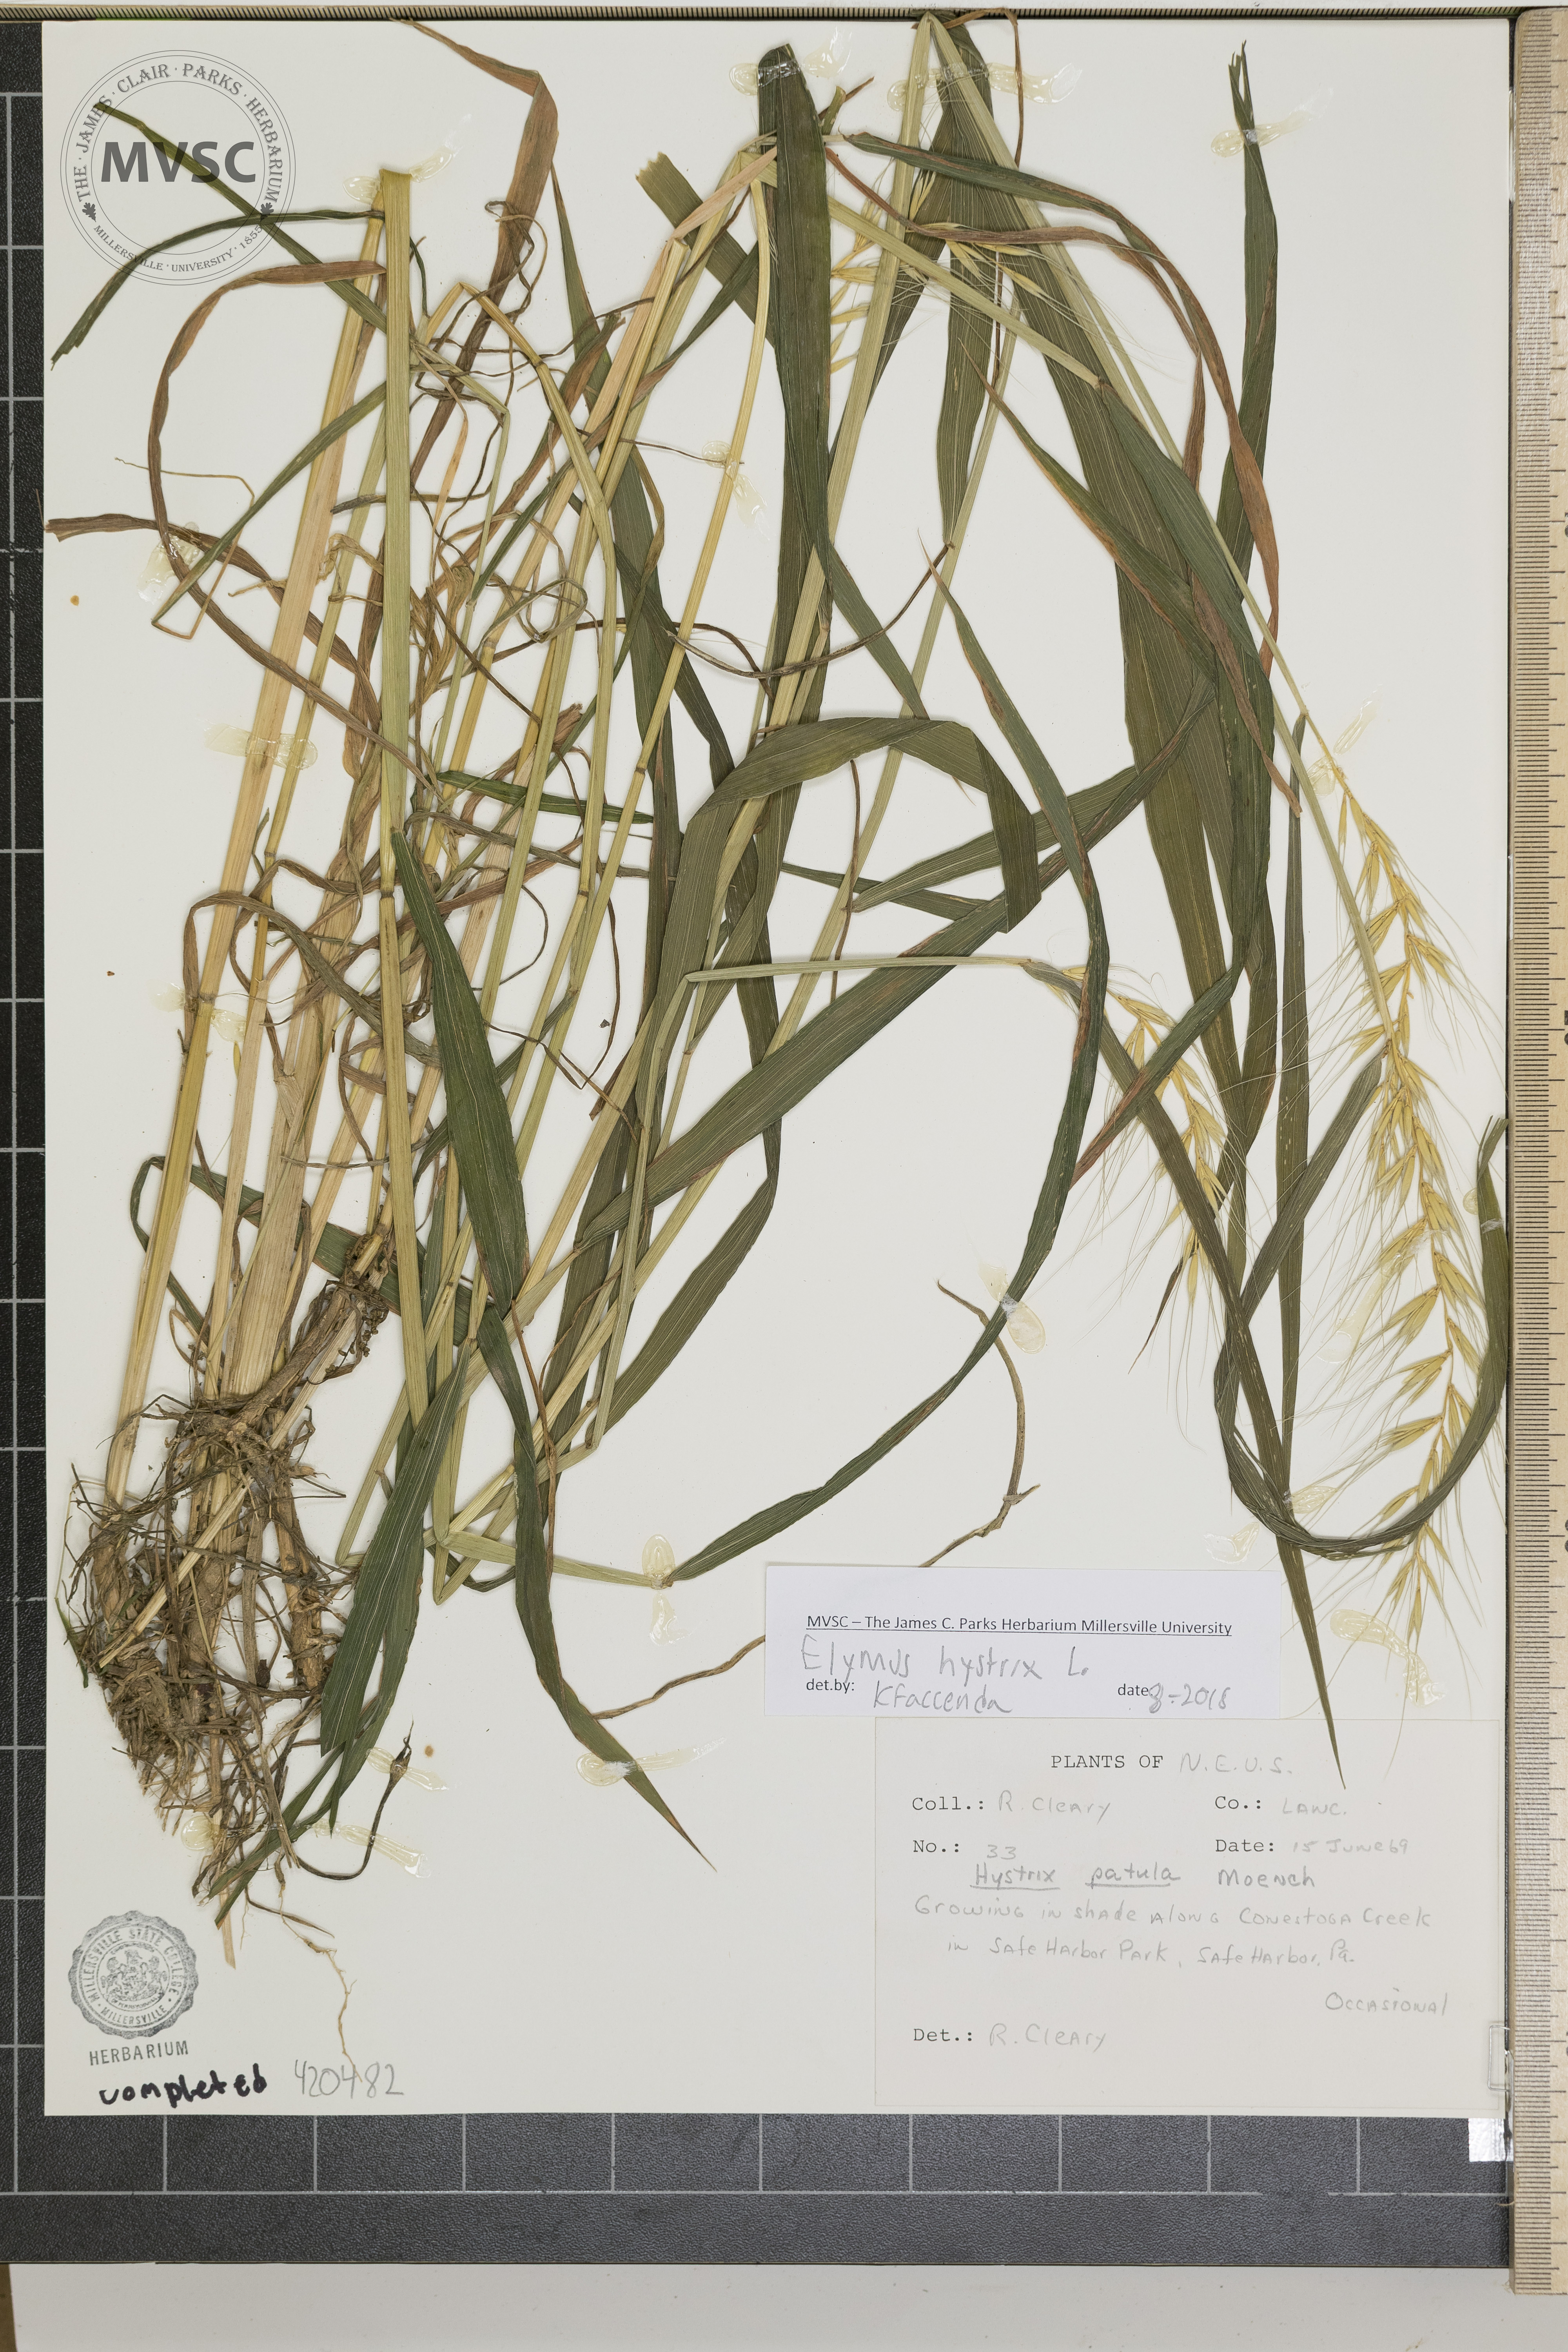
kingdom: Plantae
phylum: Tracheophyta
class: Liliopsida
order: Poales
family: Poaceae
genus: Elymus
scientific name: Elymus hystrix
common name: Bottlebrush grass
